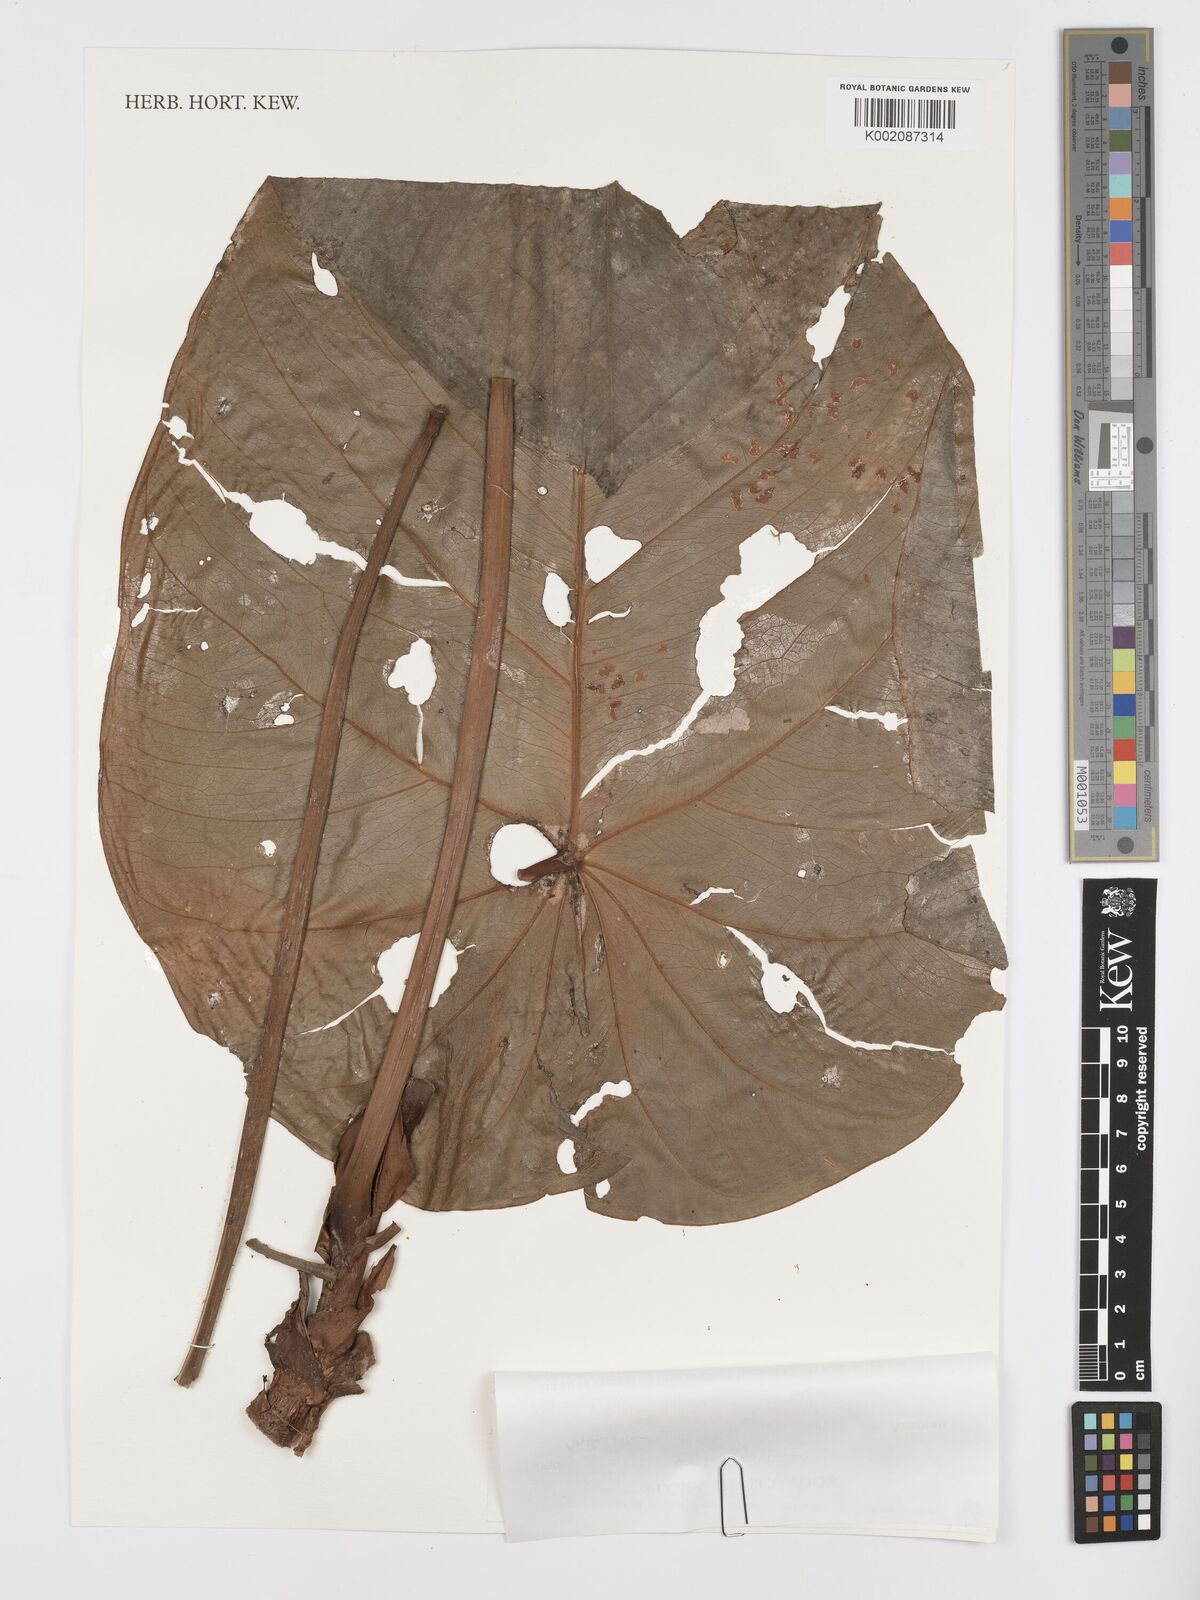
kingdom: Plantae
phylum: Tracheophyta
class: Liliopsida
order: Alismatales
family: Araceae
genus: Anthurium
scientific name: Anthurium
